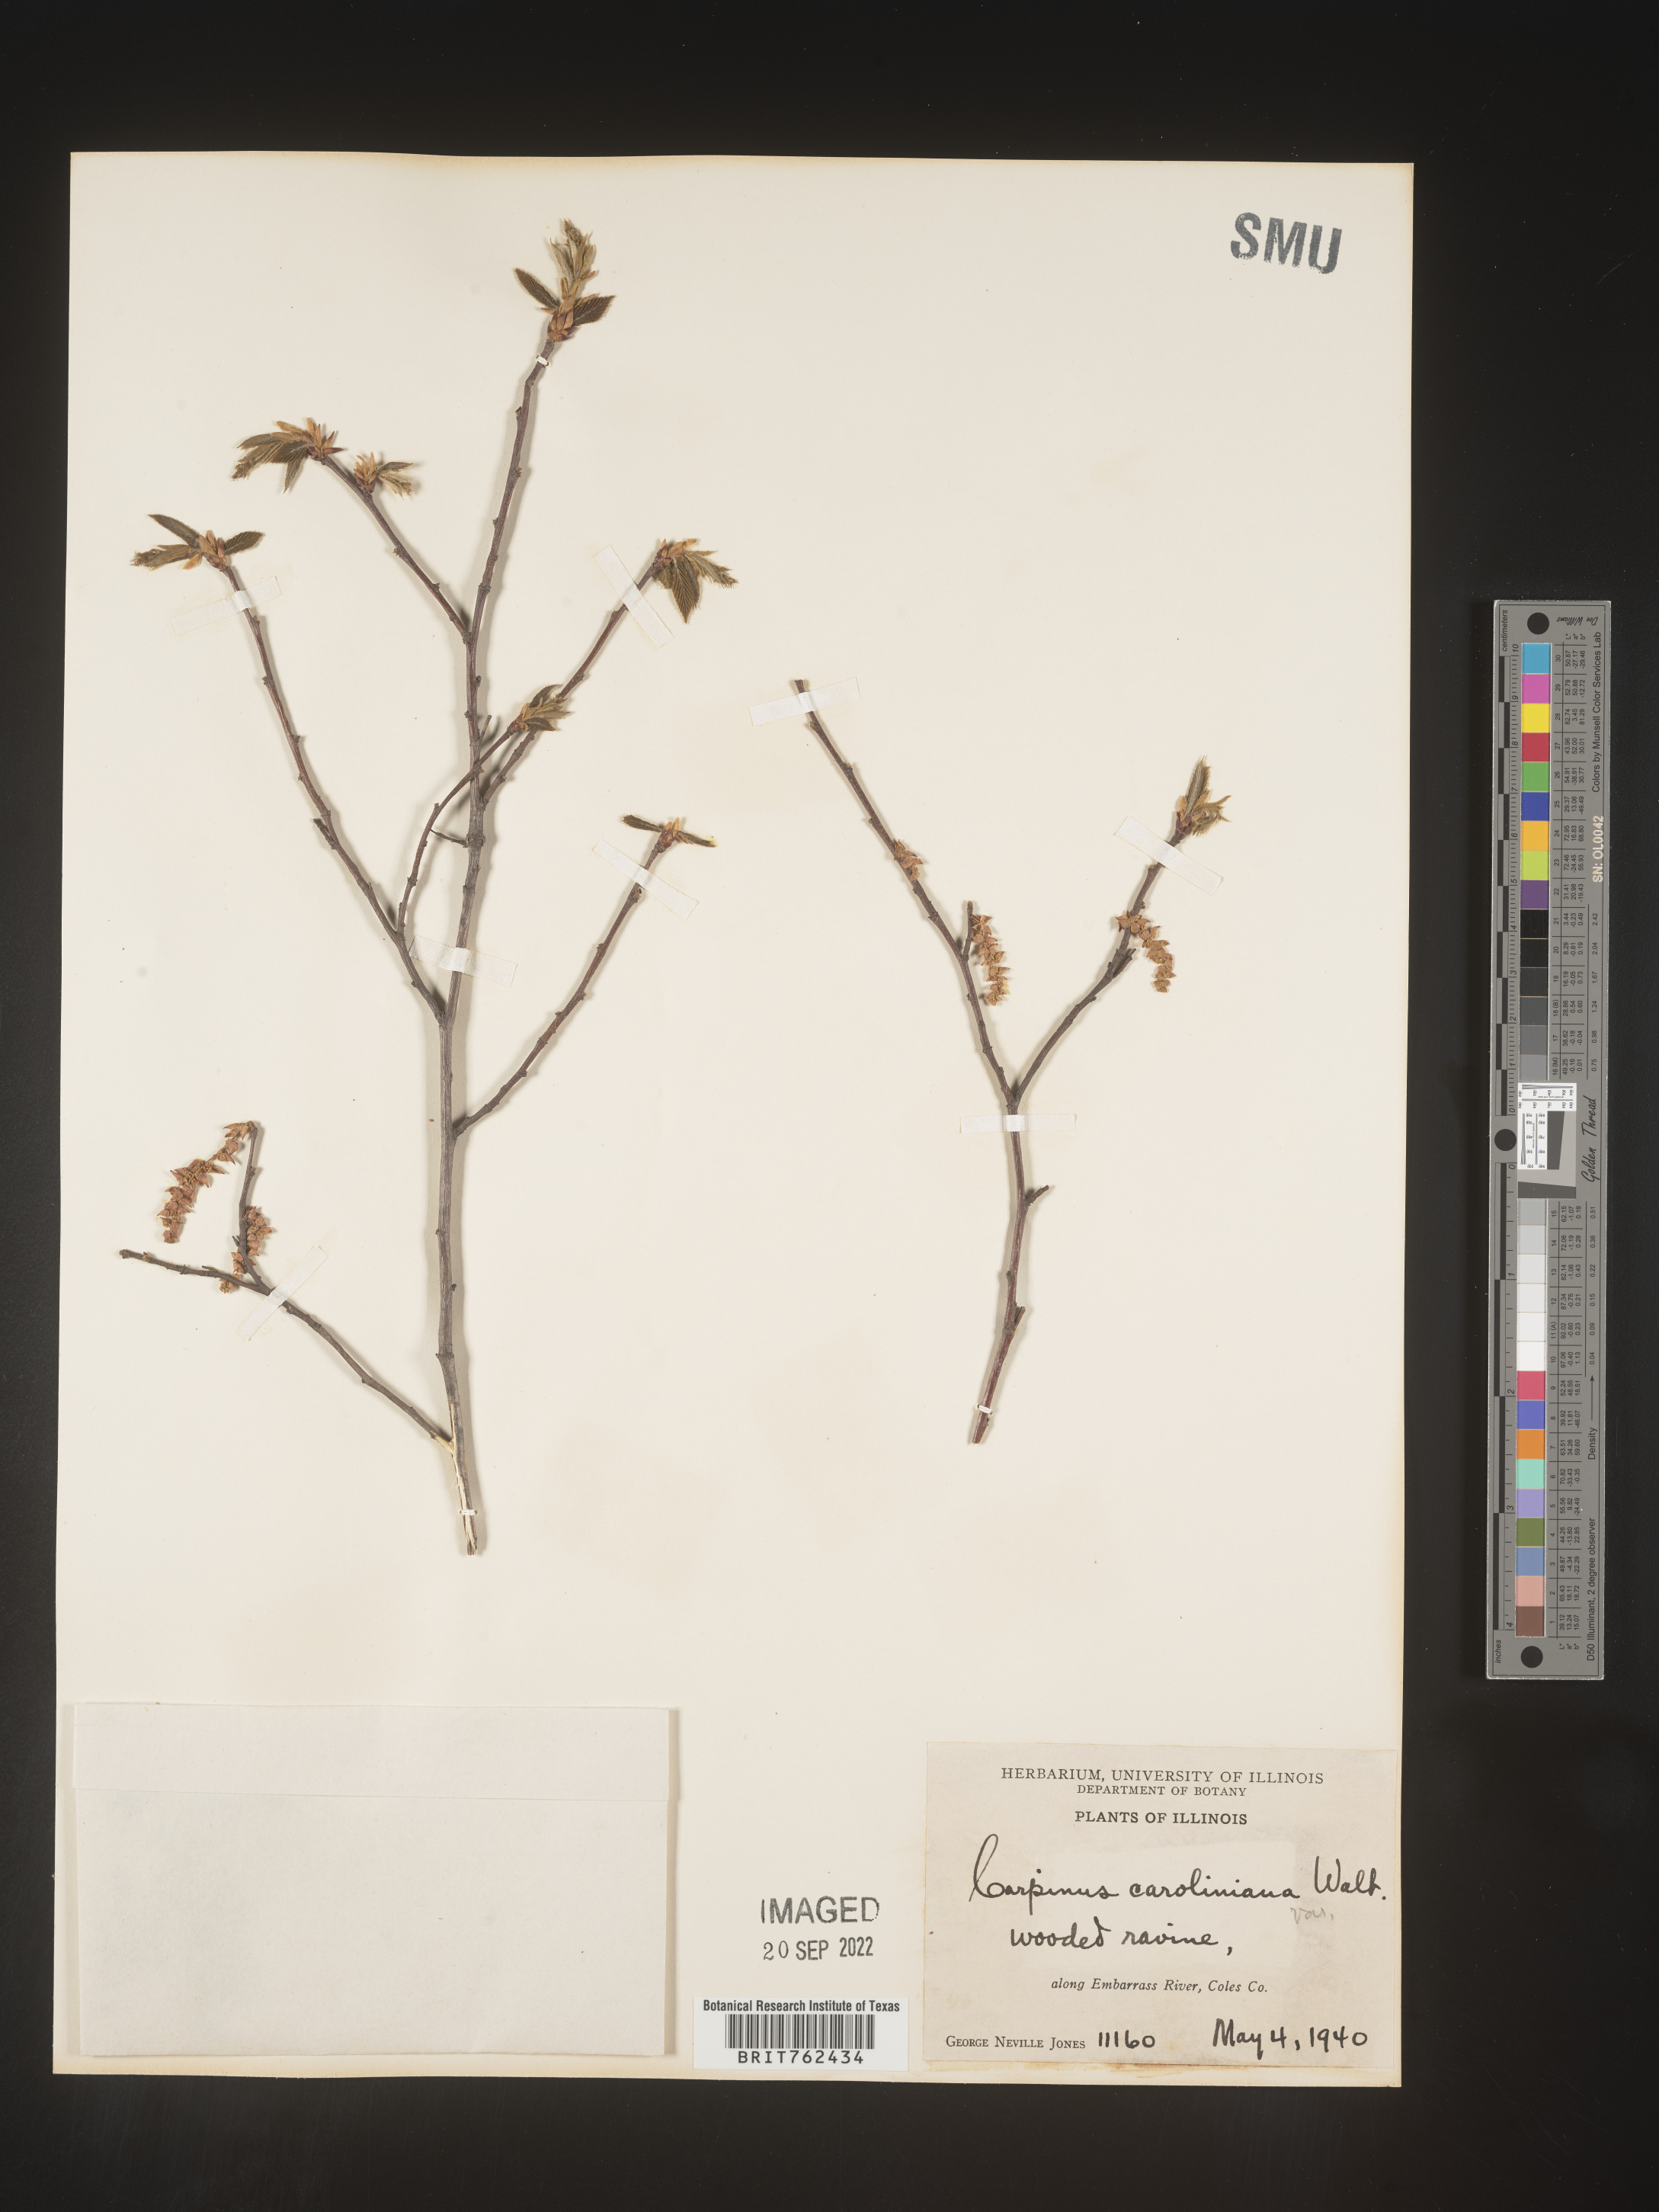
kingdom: Plantae
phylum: Tracheophyta
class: Magnoliopsida
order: Fagales
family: Betulaceae
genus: Carpinus
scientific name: Carpinus caroliniana
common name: American hornbeam
